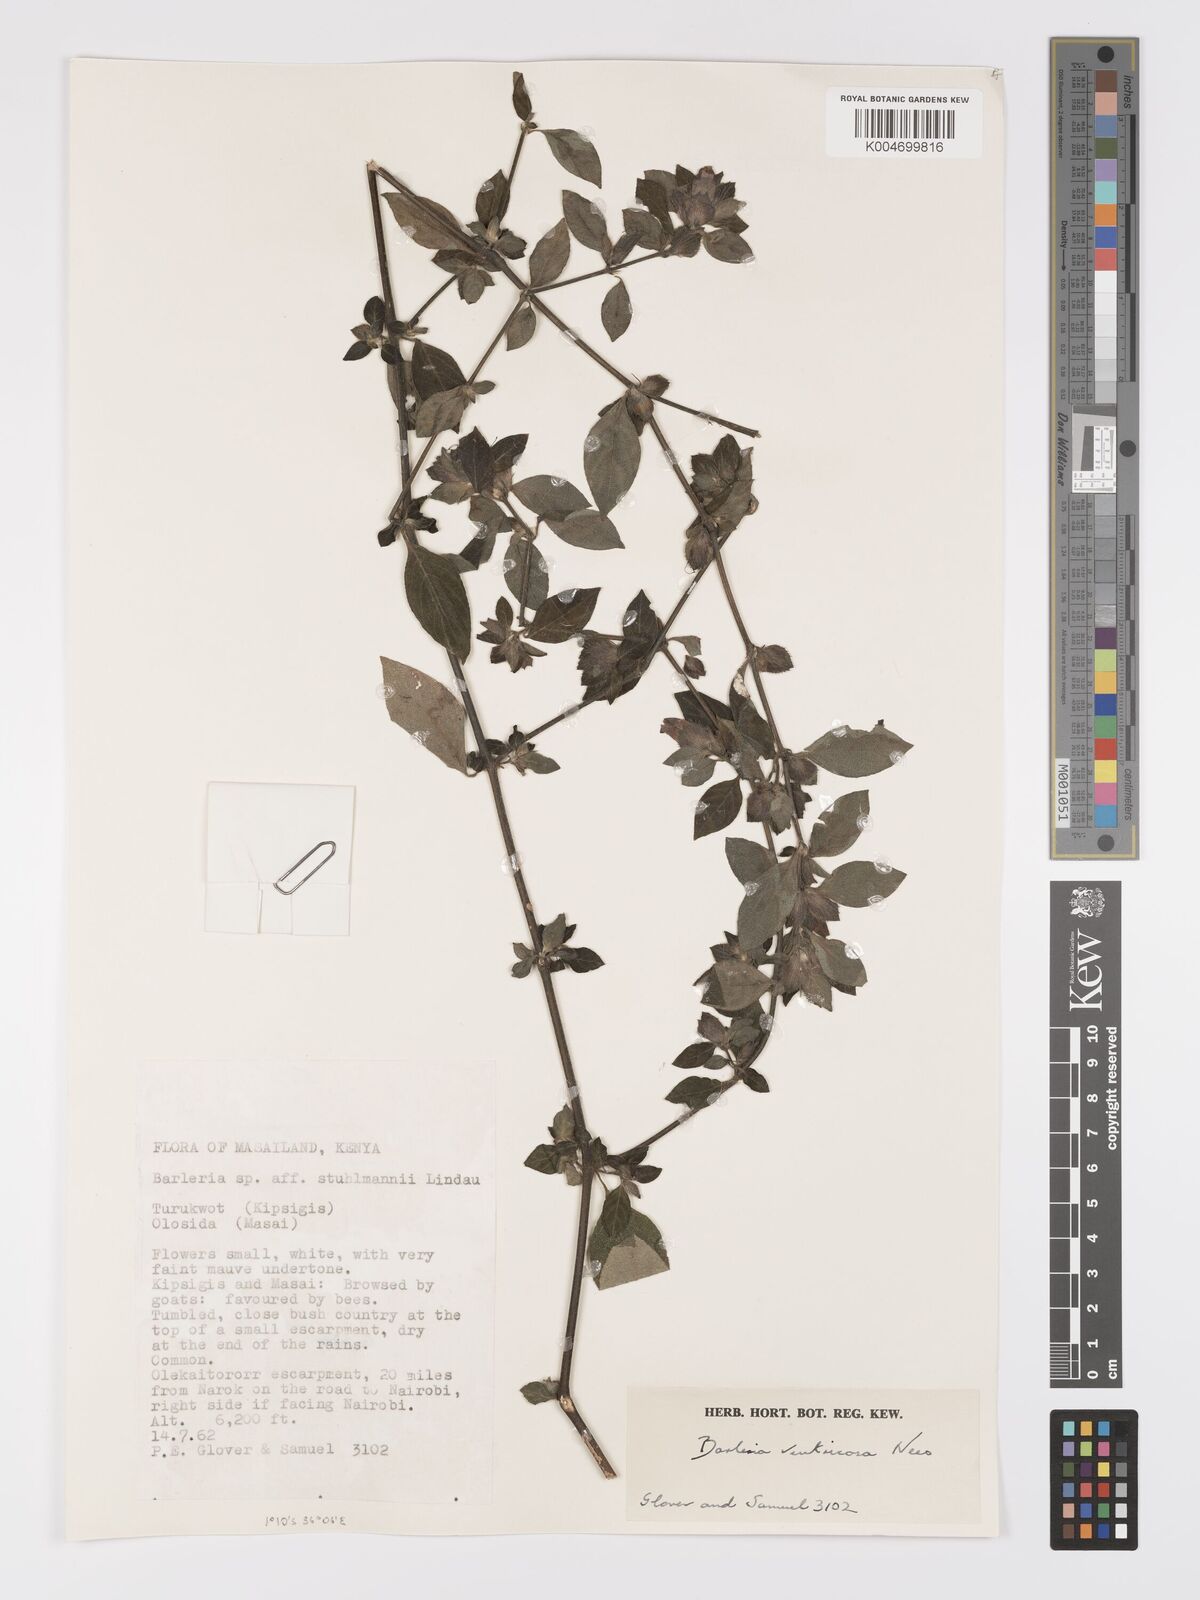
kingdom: Plantae
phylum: Tracheophyta
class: Magnoliopsida
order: Lamiales
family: Acanthaceae
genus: Barleria
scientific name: Barleria ventricosa
